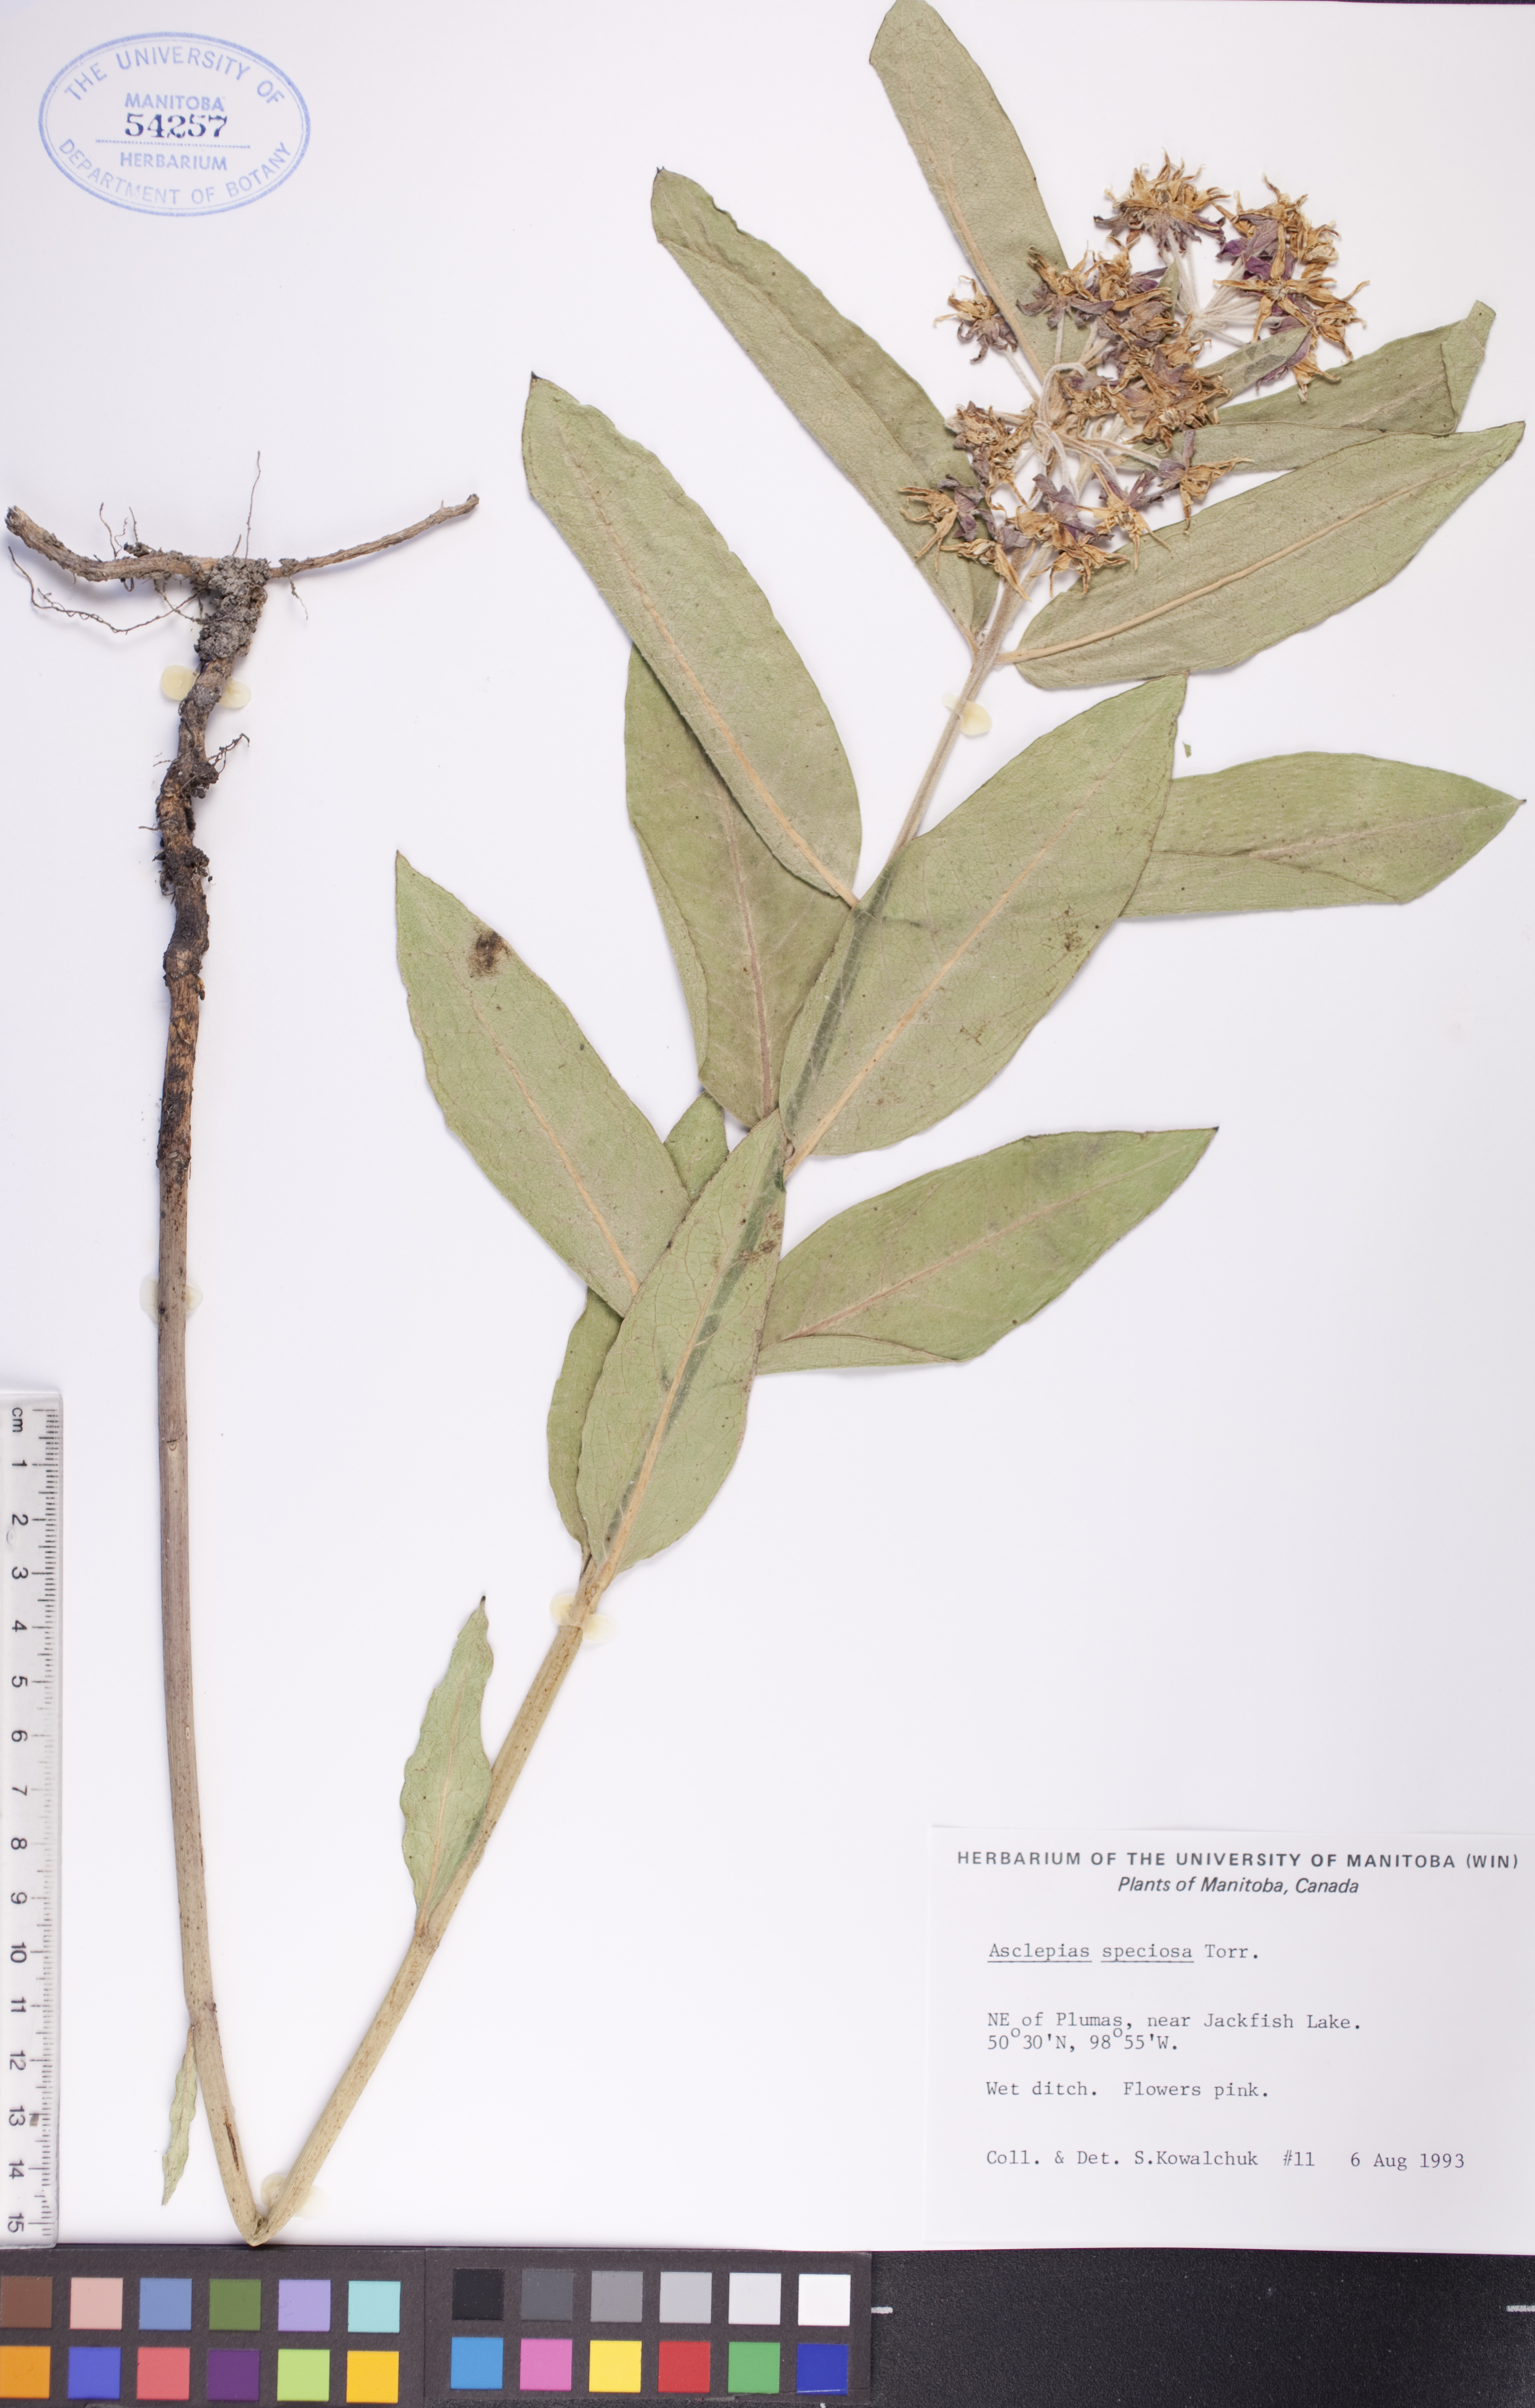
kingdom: Plantae
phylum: Tracheophyta
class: Magnoliopsida
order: Gentianales
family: Apocynaceae
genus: Asclepias
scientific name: Asclepias speciosa
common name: Showy milkweed
